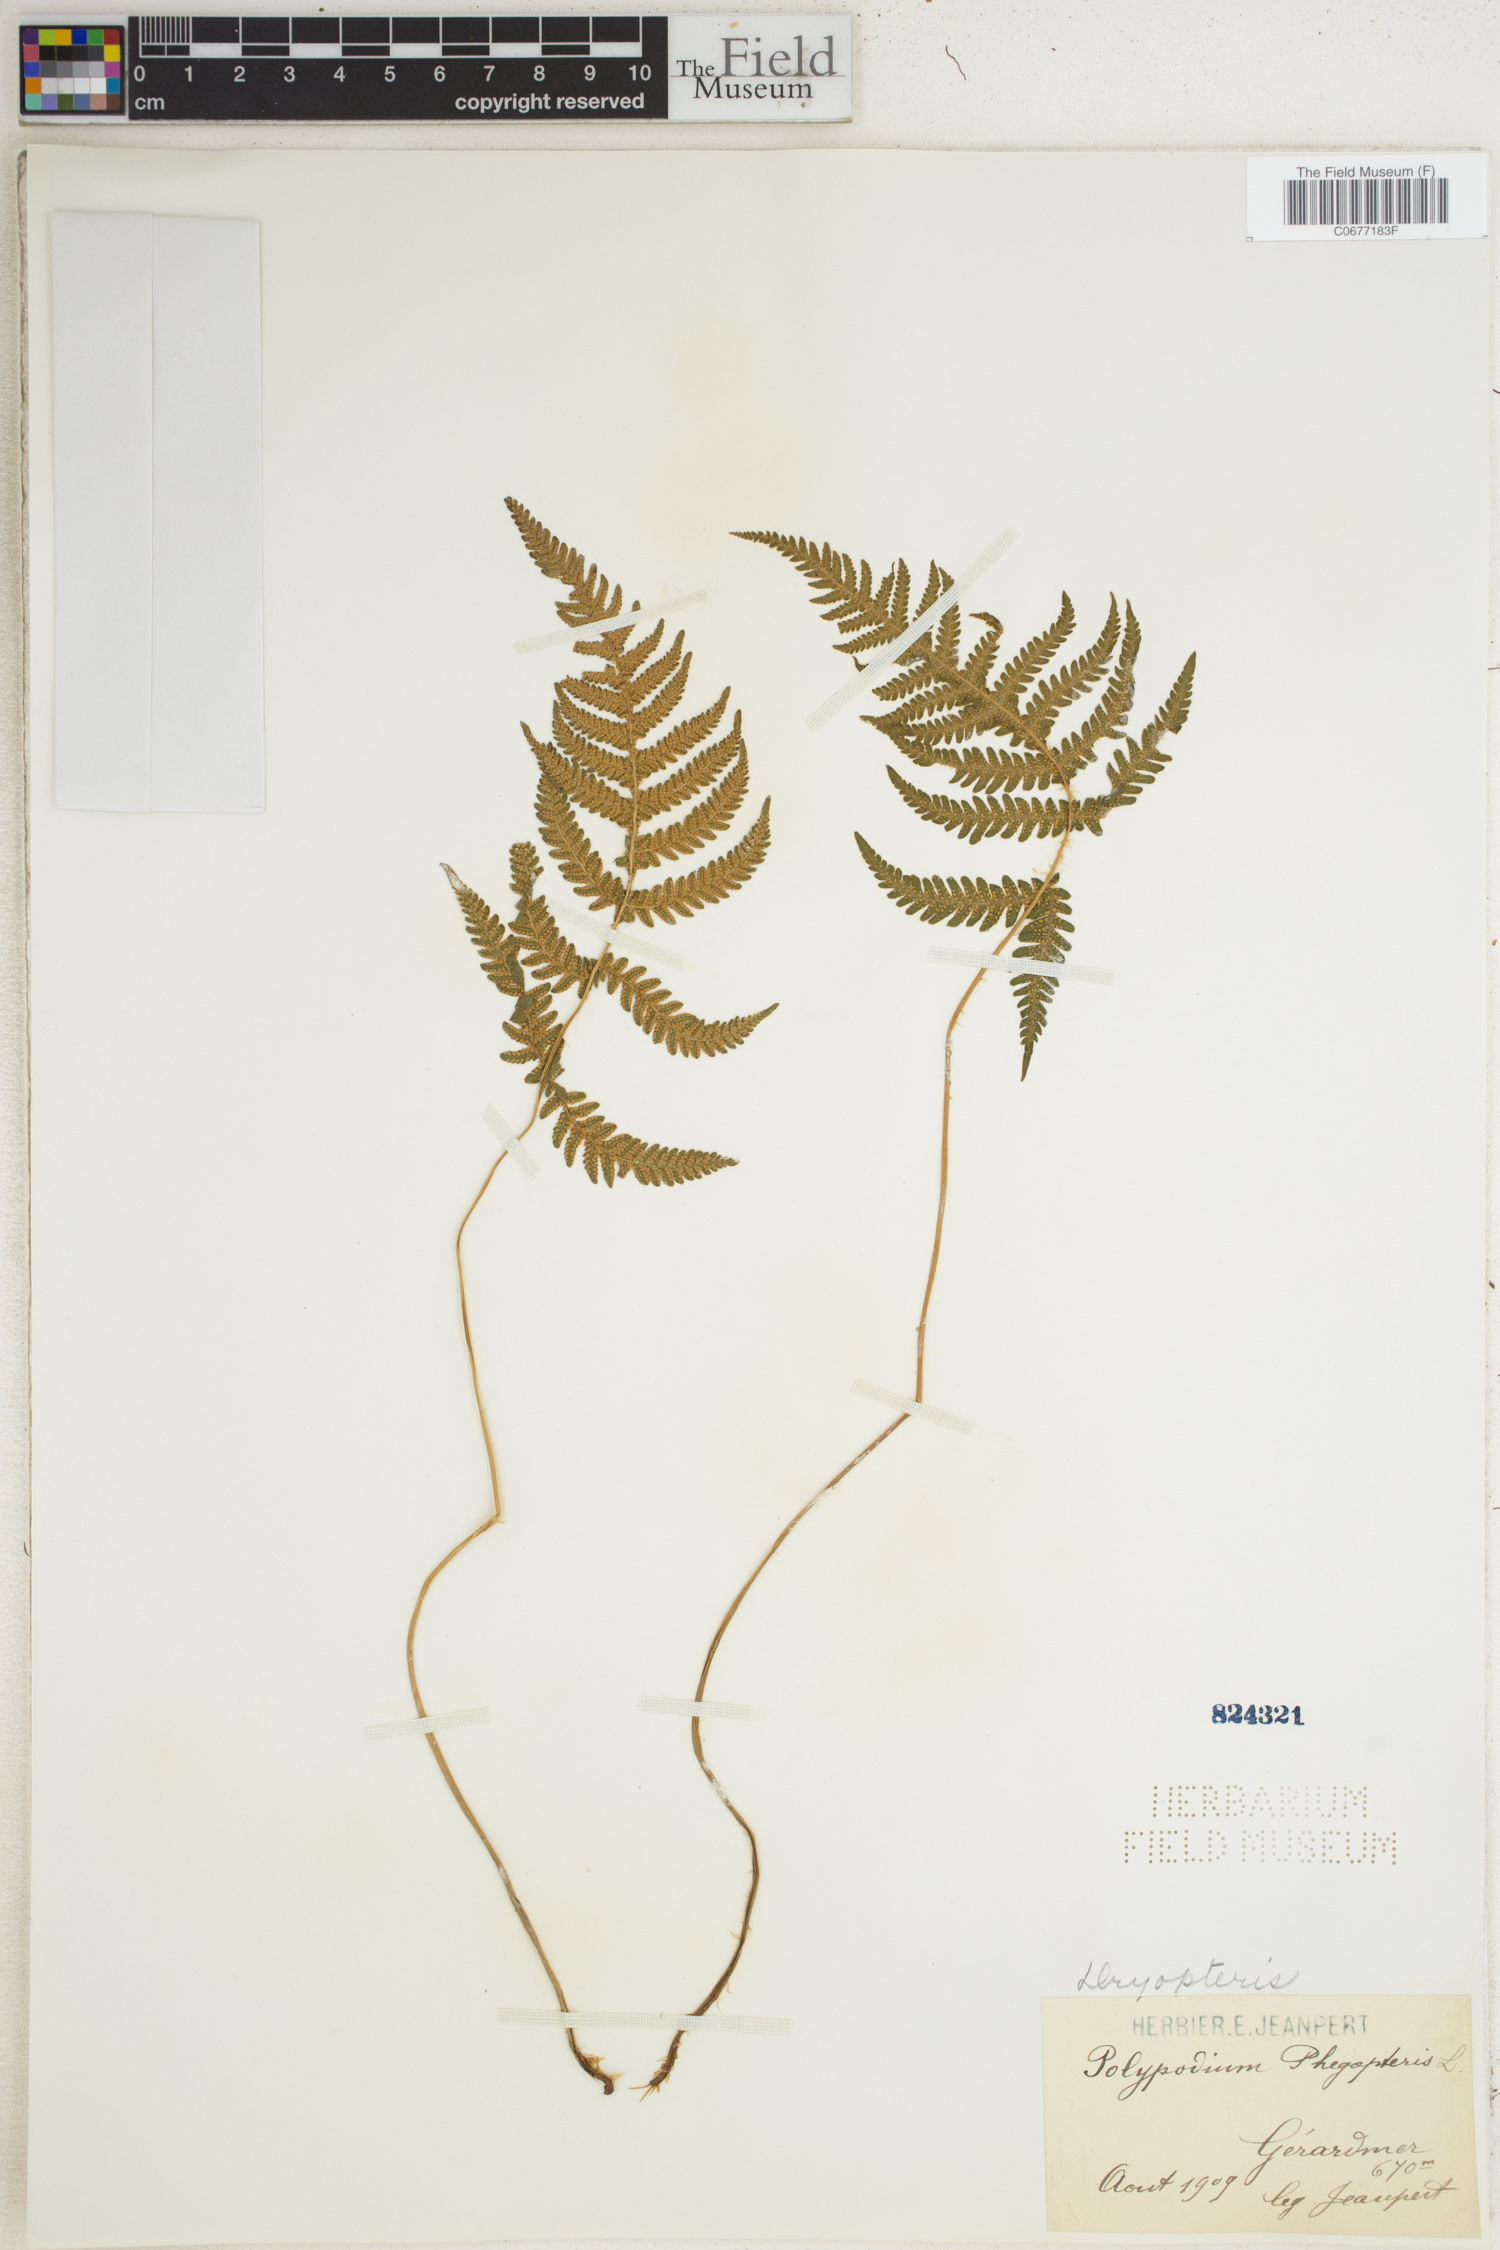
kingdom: Plantae
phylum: Tracheophyta
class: Polypodiopsida
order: Polypodiales
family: Thelypteridaceae
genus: Phegopteris
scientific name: Phegopteris connectilis
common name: Beech fern
